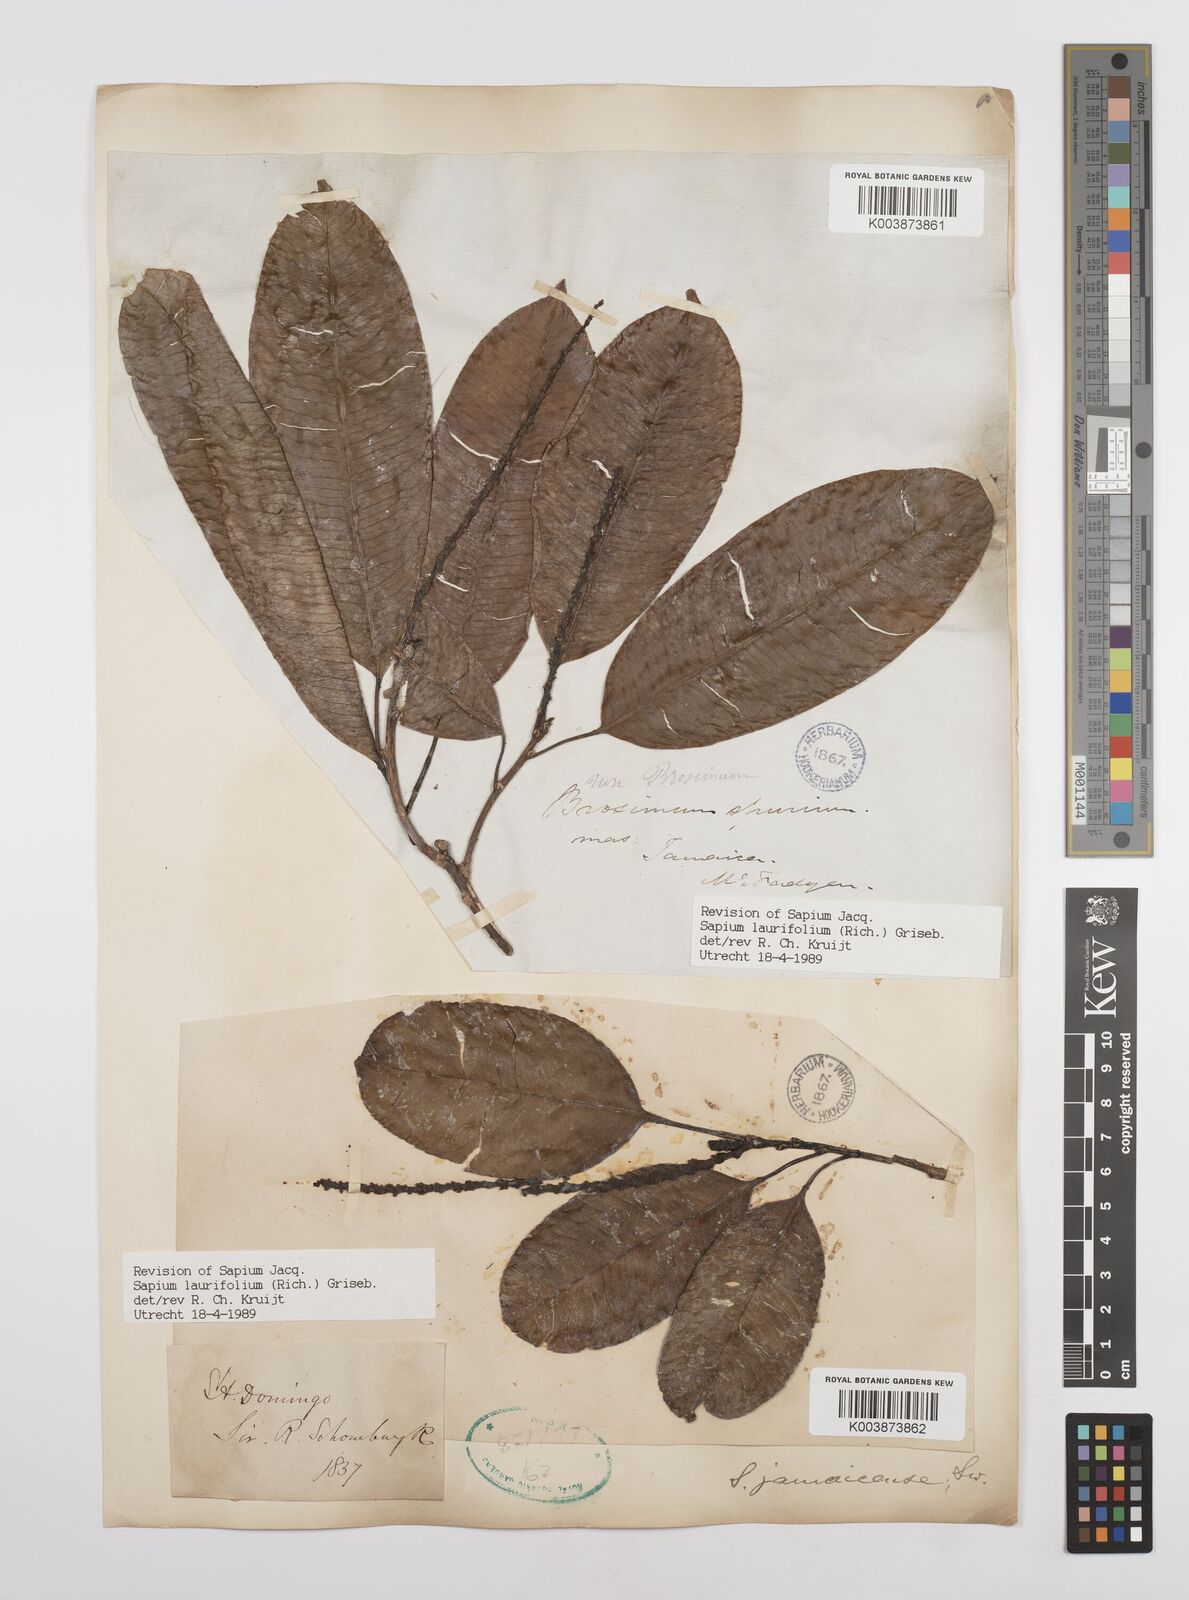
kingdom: Plantae
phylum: Tracheophyta
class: Magnoliopsida
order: Malpighiales
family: Euphorbiaceae
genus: Sapium
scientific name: Sapium glandulosum
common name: Milktree
